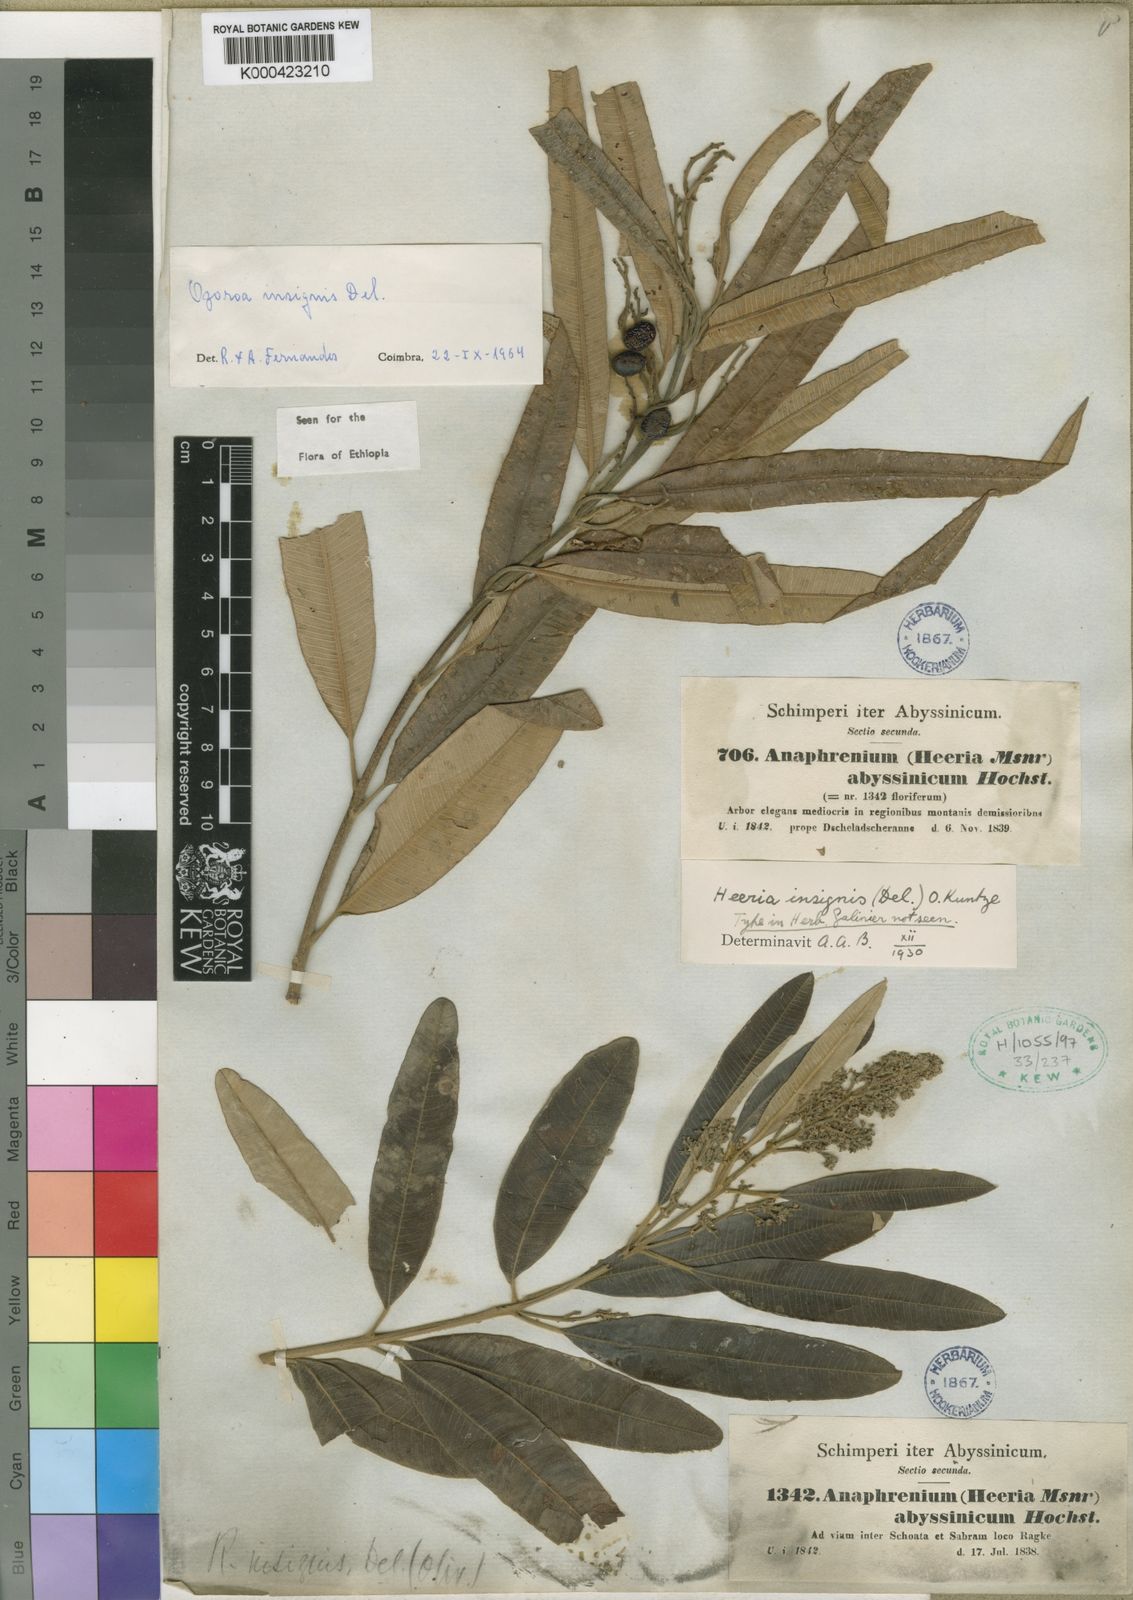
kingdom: Plantae
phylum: Tracheophyta
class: Magnoliopsida
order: Sapindales
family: Anacardiaceae
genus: Ozoroa
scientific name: Ozoroa insignis
